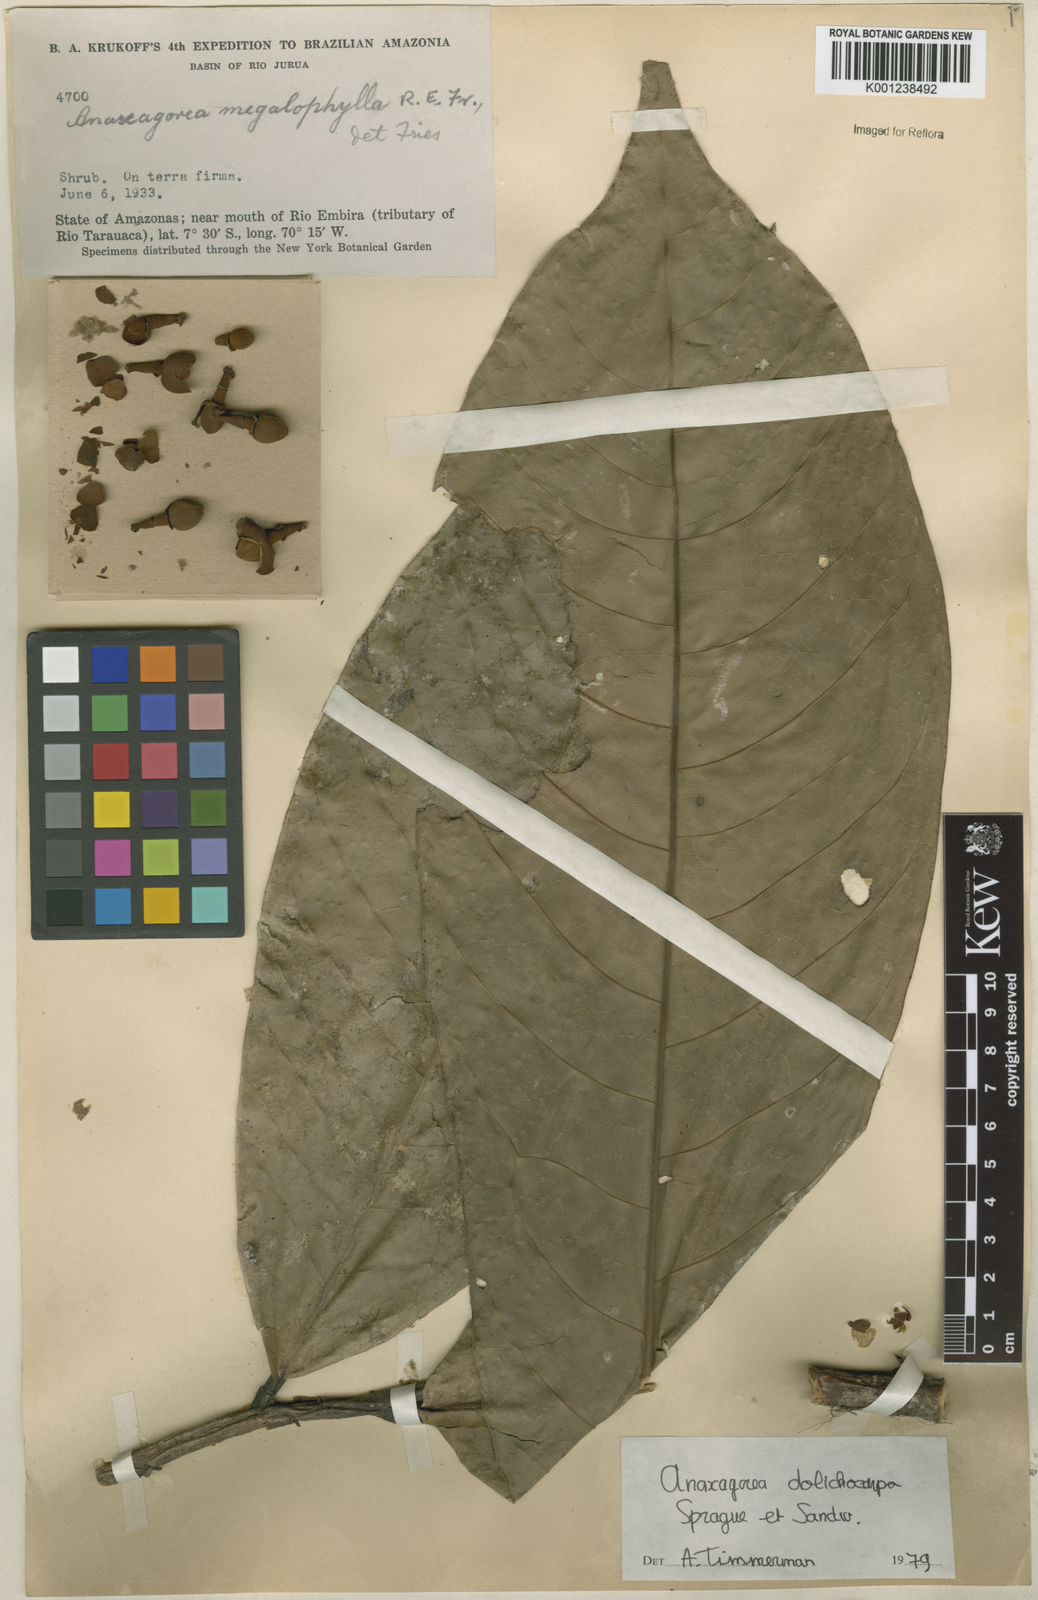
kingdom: Plantae
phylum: Tracheophyta
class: Magnoliopsida
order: Magnoliales
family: Annonaceae
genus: Anaxagorea
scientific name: Anaxagorea dolichocarpa
